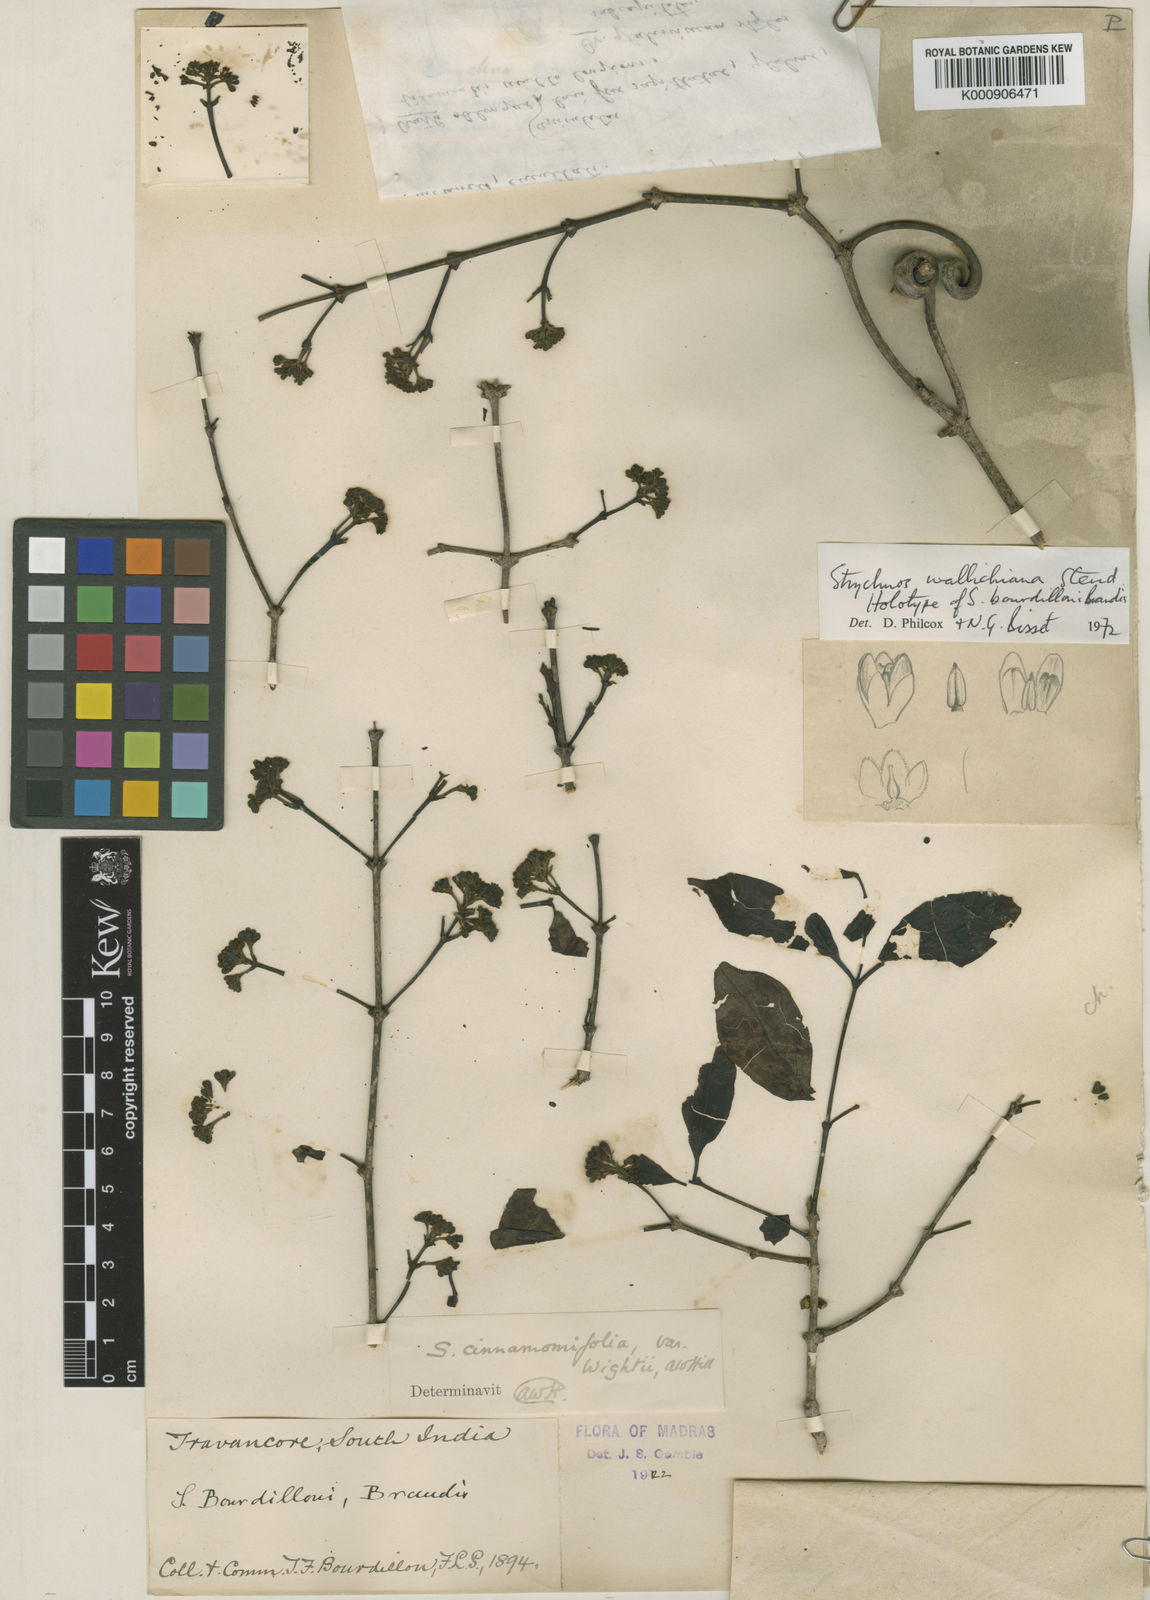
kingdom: Plantae
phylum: Tracheophyta
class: Magnoliopsida
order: Gentianales
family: Loganiaceae
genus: Strychnos
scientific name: Strychnos
